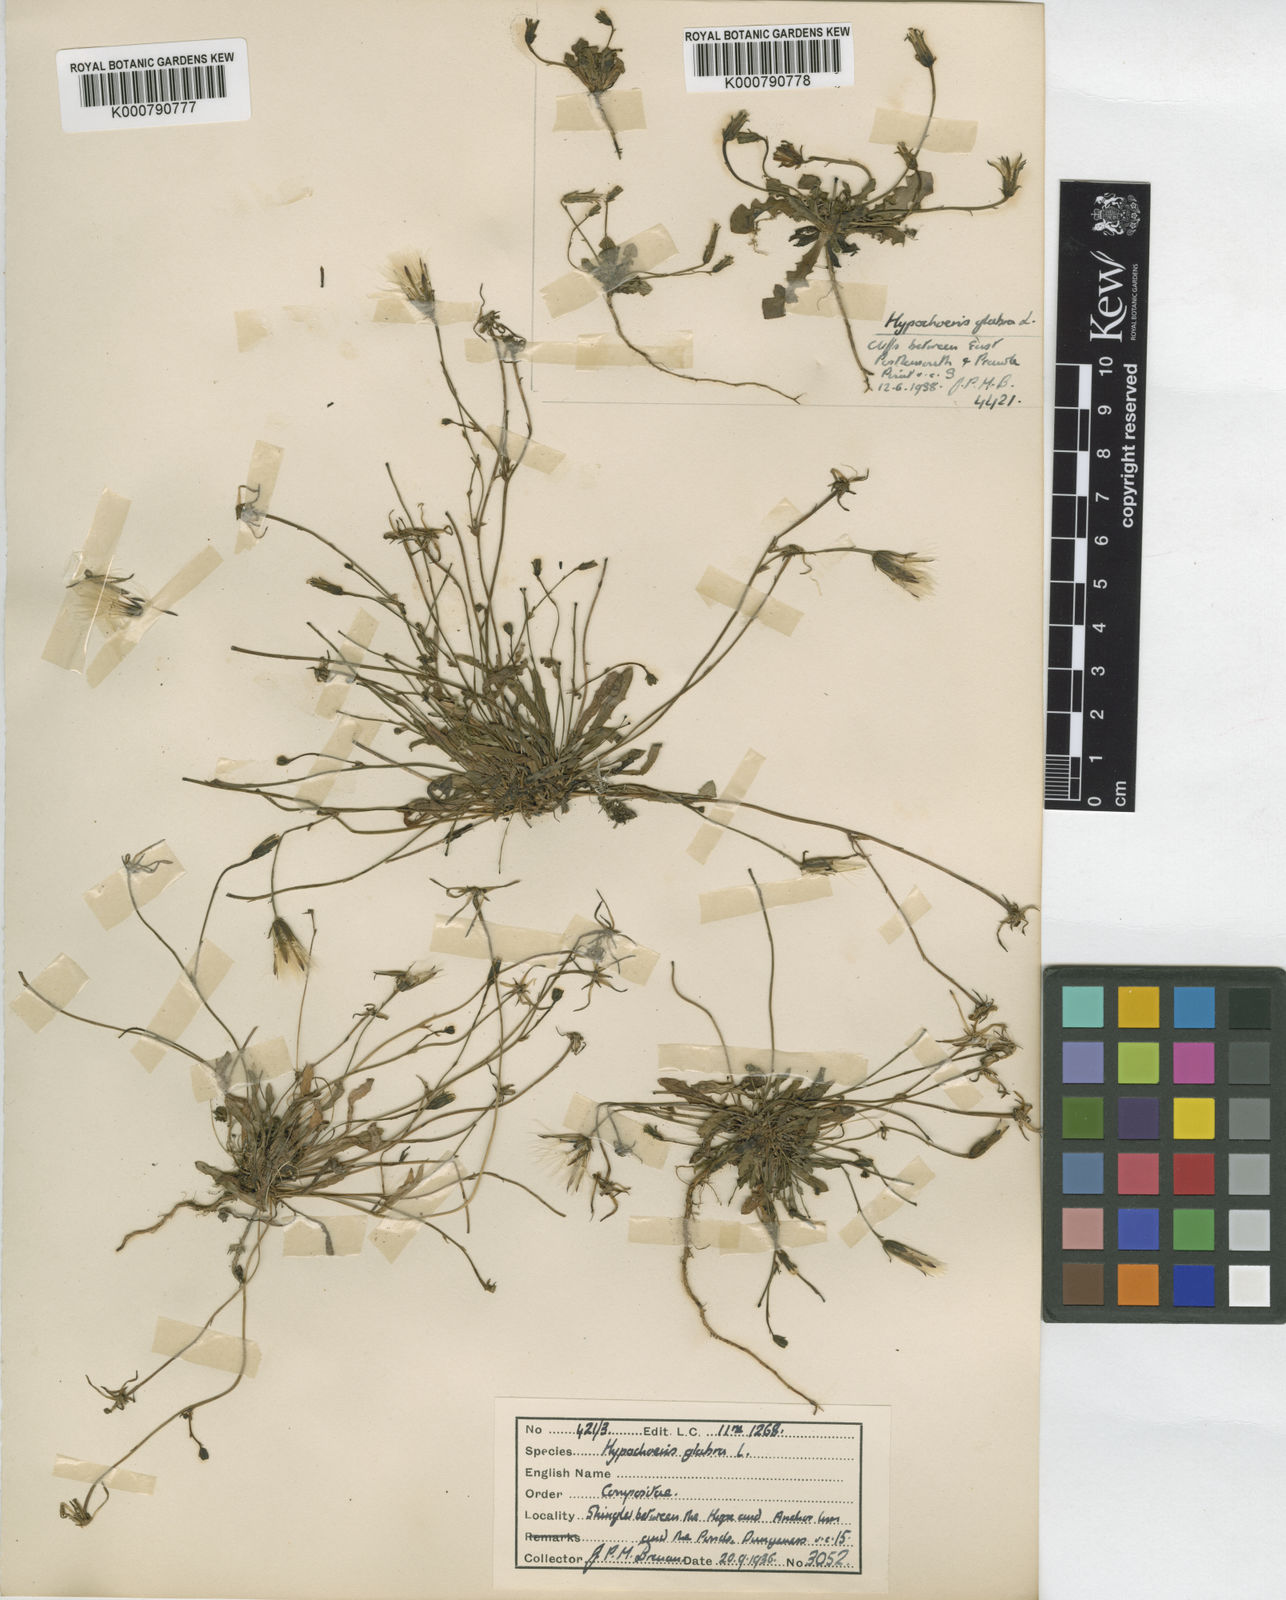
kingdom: Plantae
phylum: Tracheophyta
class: Magnoliopsida
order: Asterales
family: Asteraceae
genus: Hypochaeris
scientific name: Hypochaeris glabra
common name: Smooth catsear
